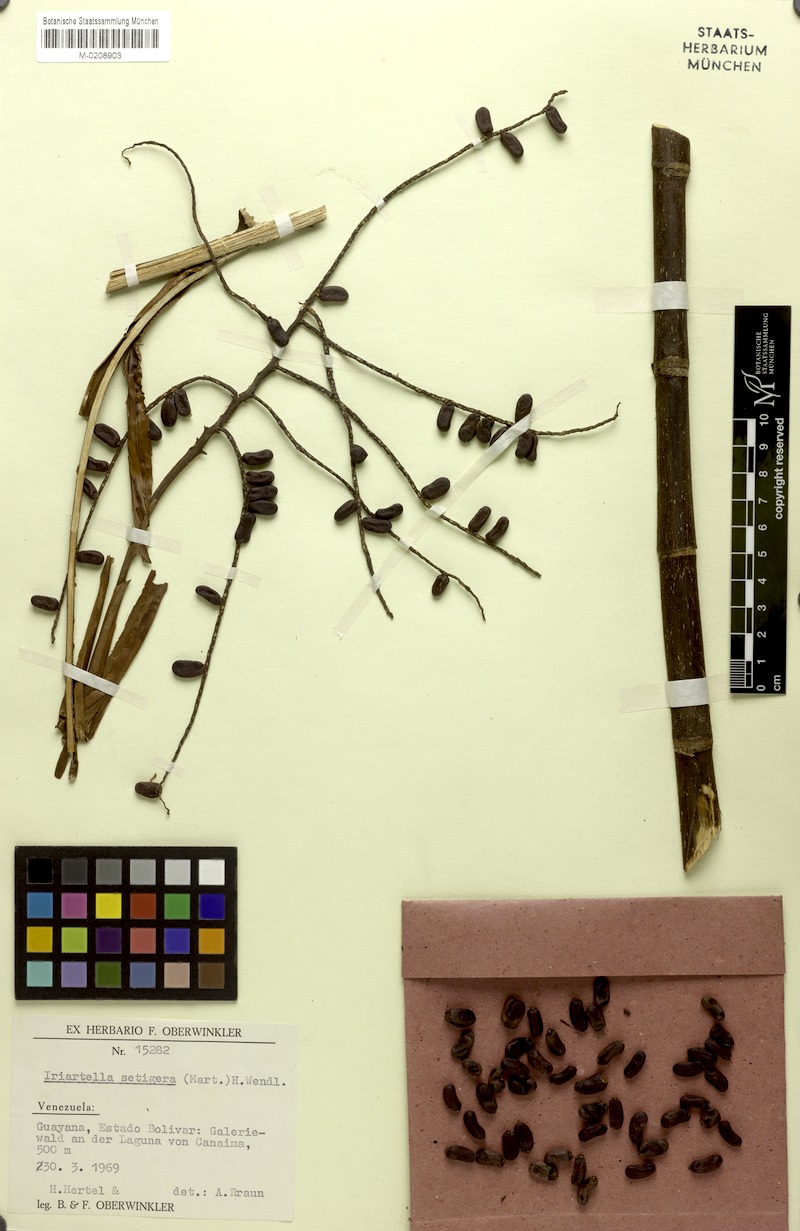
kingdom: Plantae
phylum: Tracheophyta
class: Liliopsida
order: Arecales
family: Arecaceae
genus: Iriartella
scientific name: Iriartella setigera
